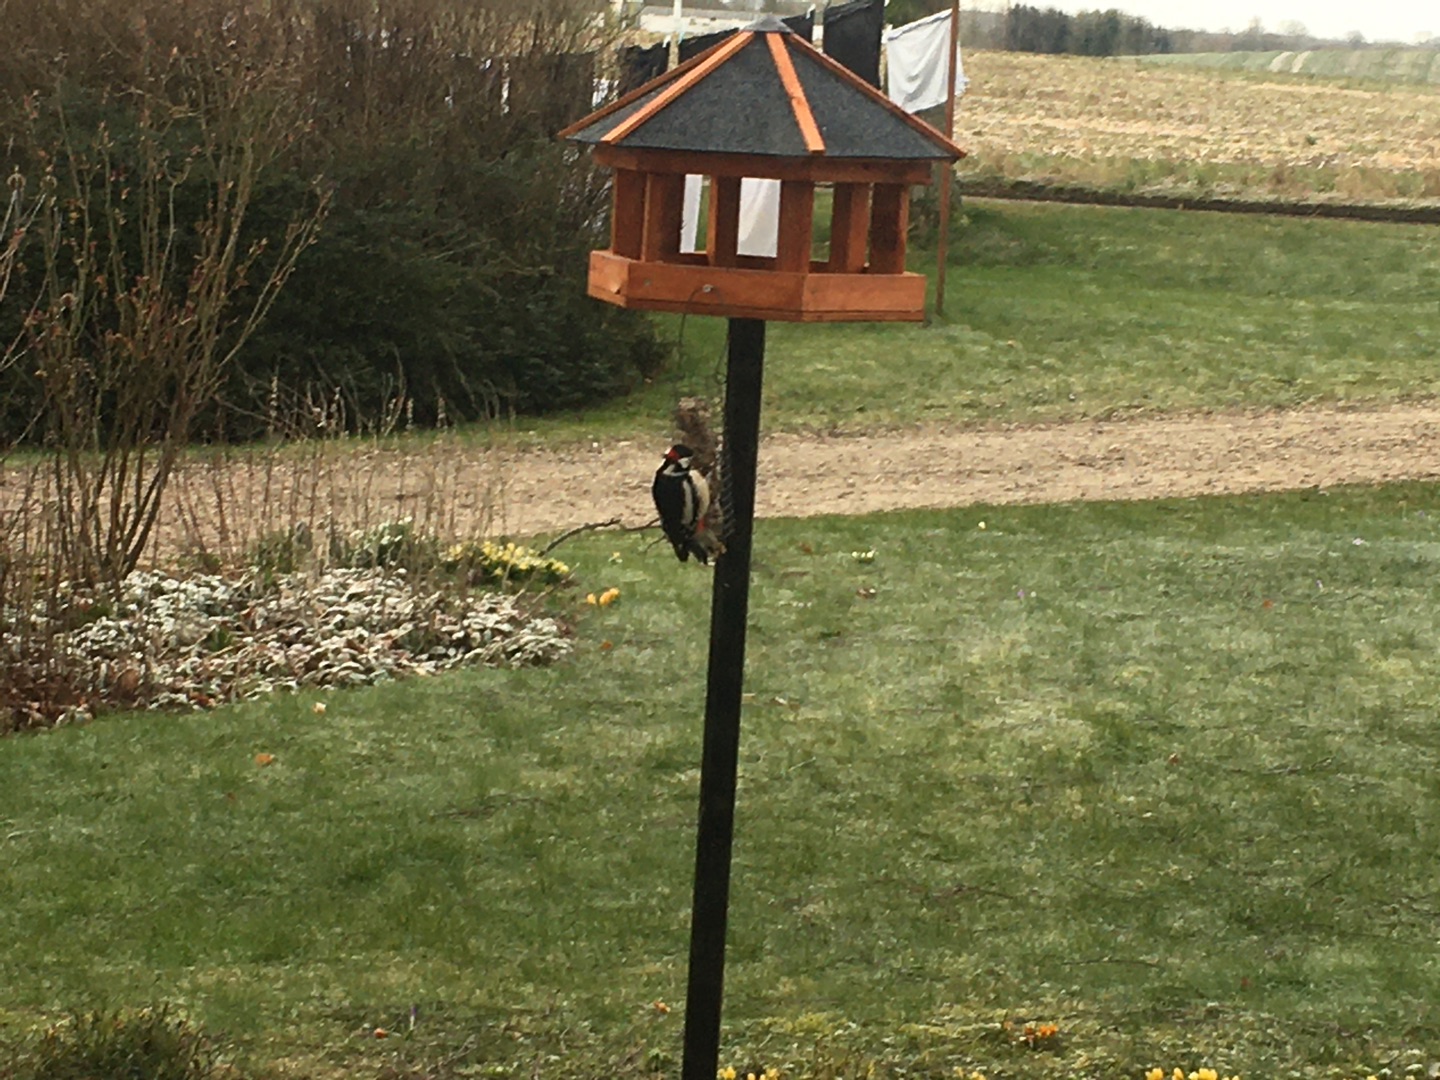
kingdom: Animalia
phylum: Chordata
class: Aves
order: Piciformes
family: Picidae
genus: Dendrocopos
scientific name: Dendrocopos major
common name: Stor flagspætte
